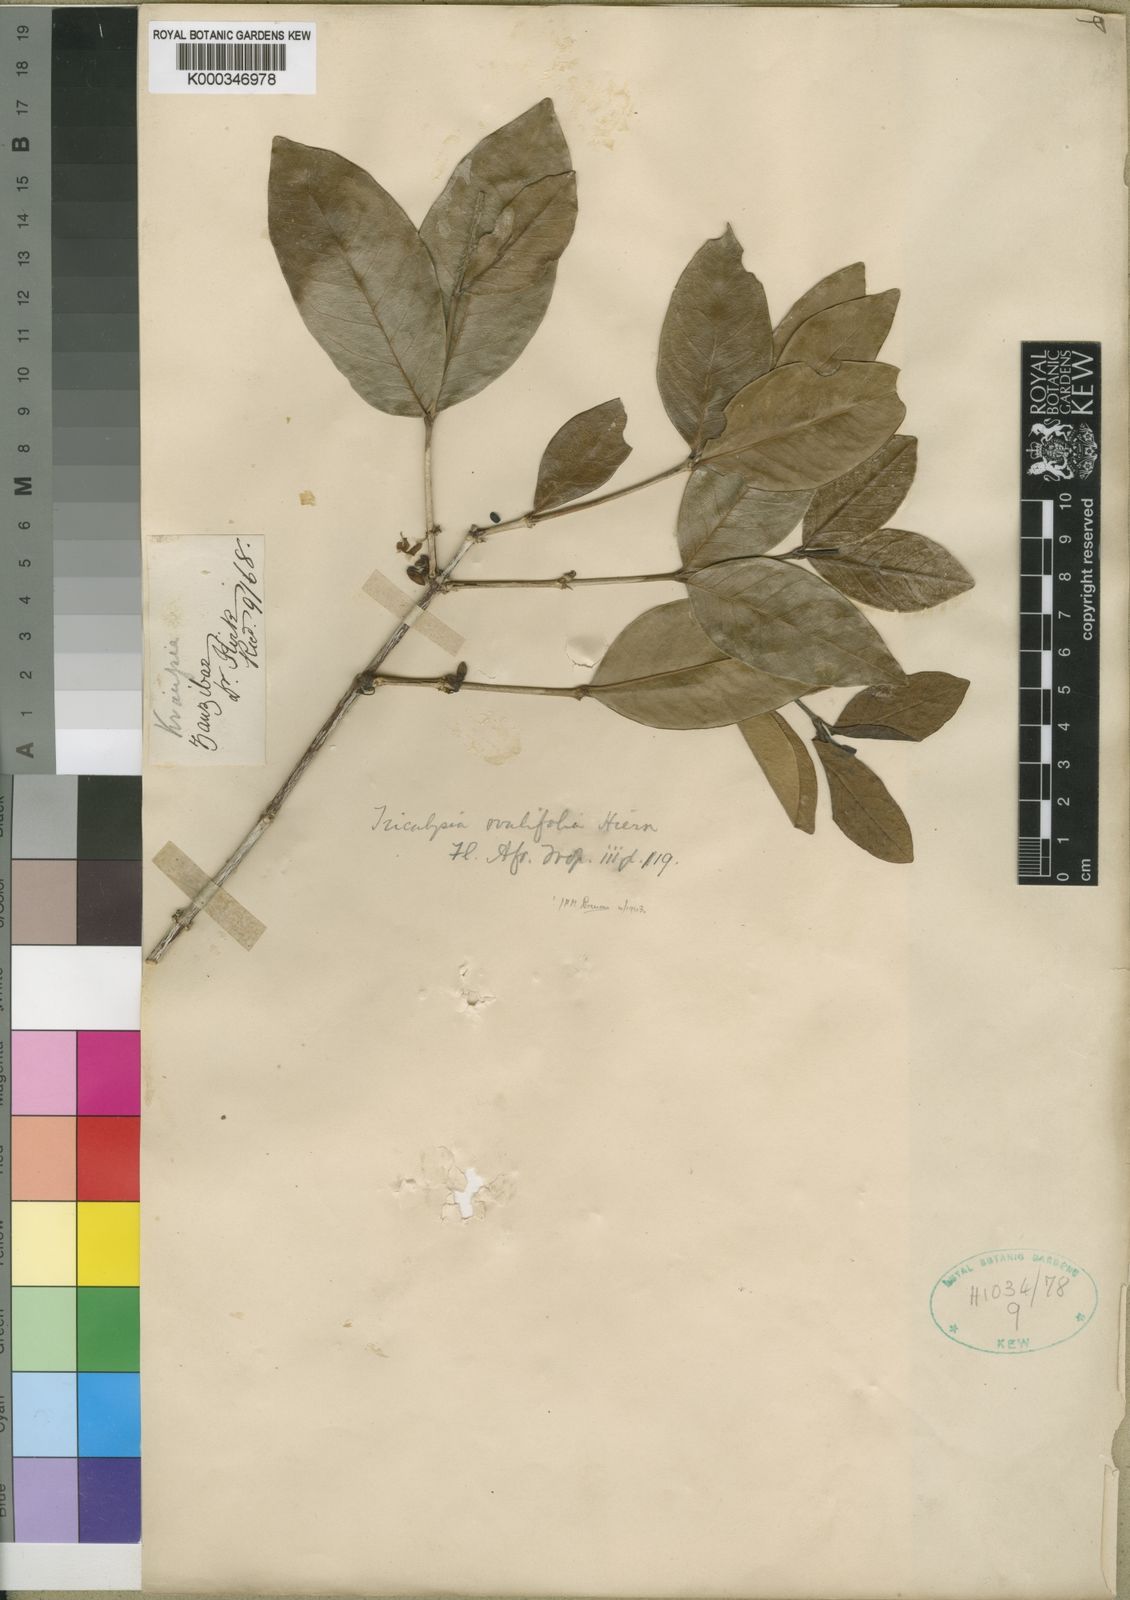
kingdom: Plantae
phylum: Tracheophyta
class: Magnoliopsida
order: Gentianales
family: Rubiaceae
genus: Empogona
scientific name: Empogona ovalifolia
